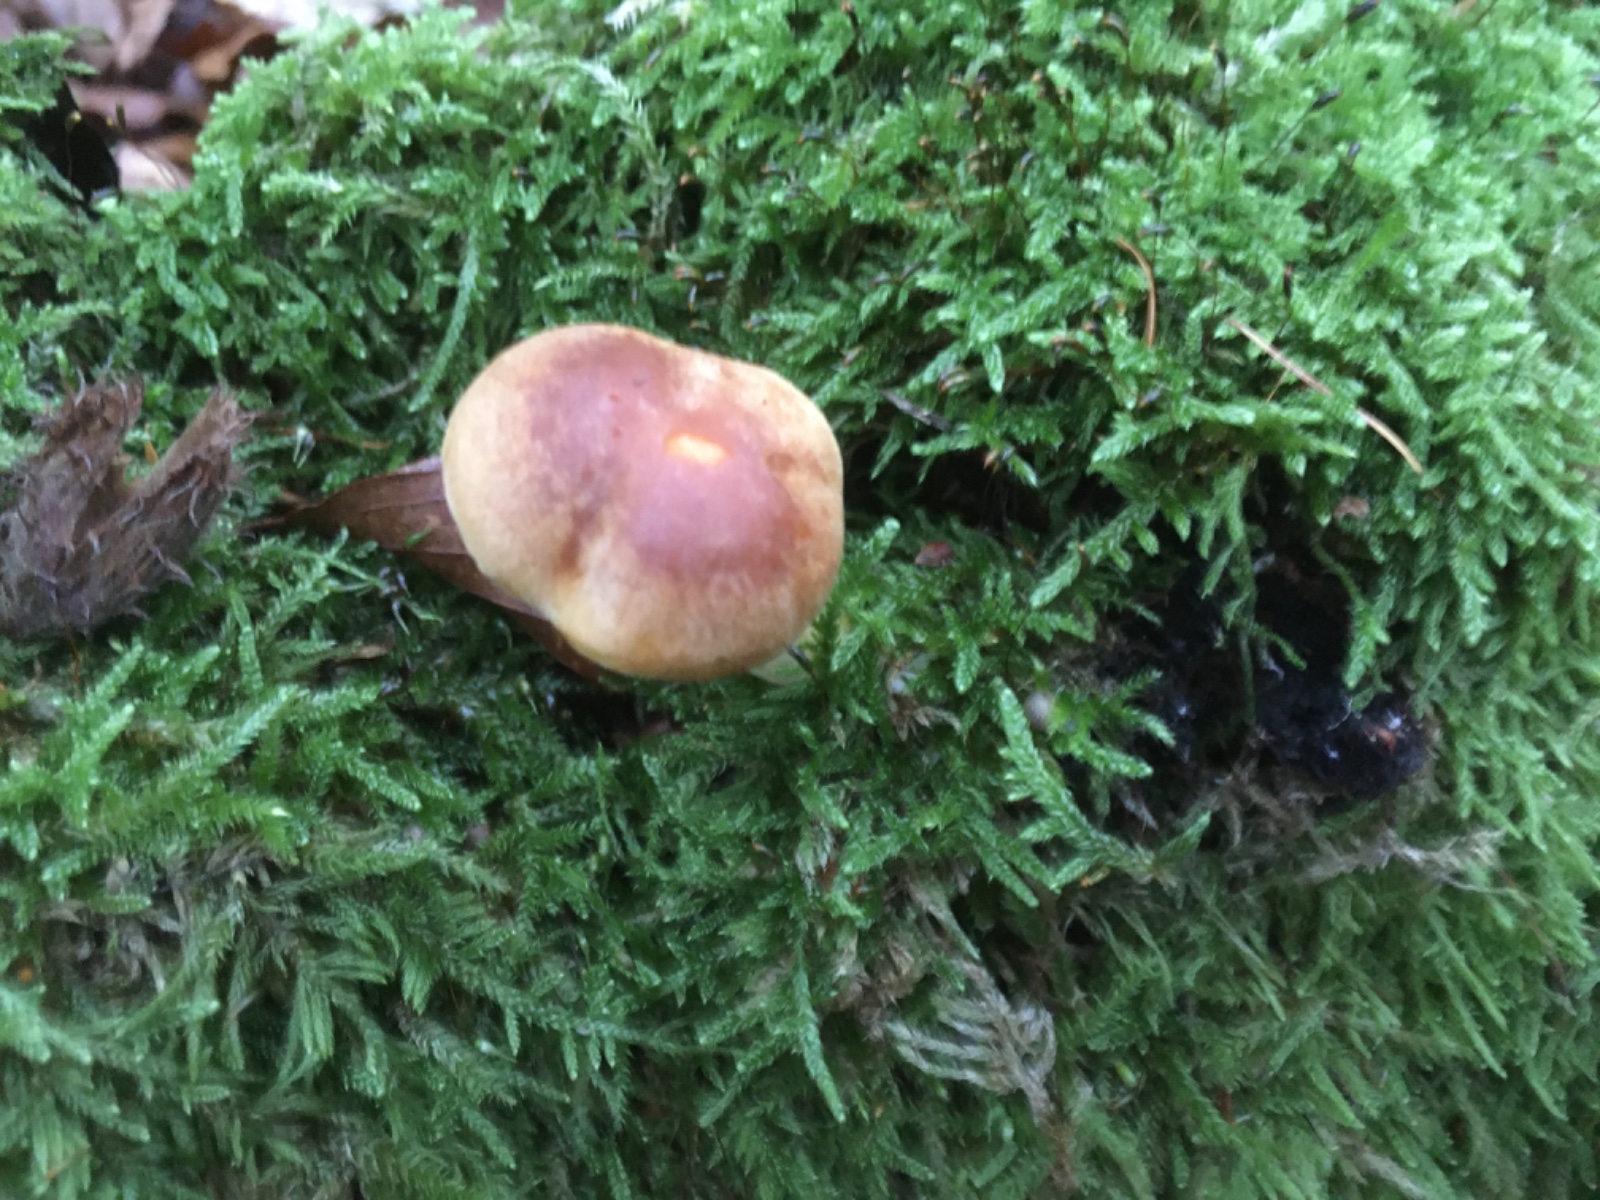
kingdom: Fungi
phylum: Basidiomycota
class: Agaricomycetes
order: Agaricales
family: Hymenogastraceae
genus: Gymnopilus
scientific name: Gymnopilus penetrans
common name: plettet flammehat
